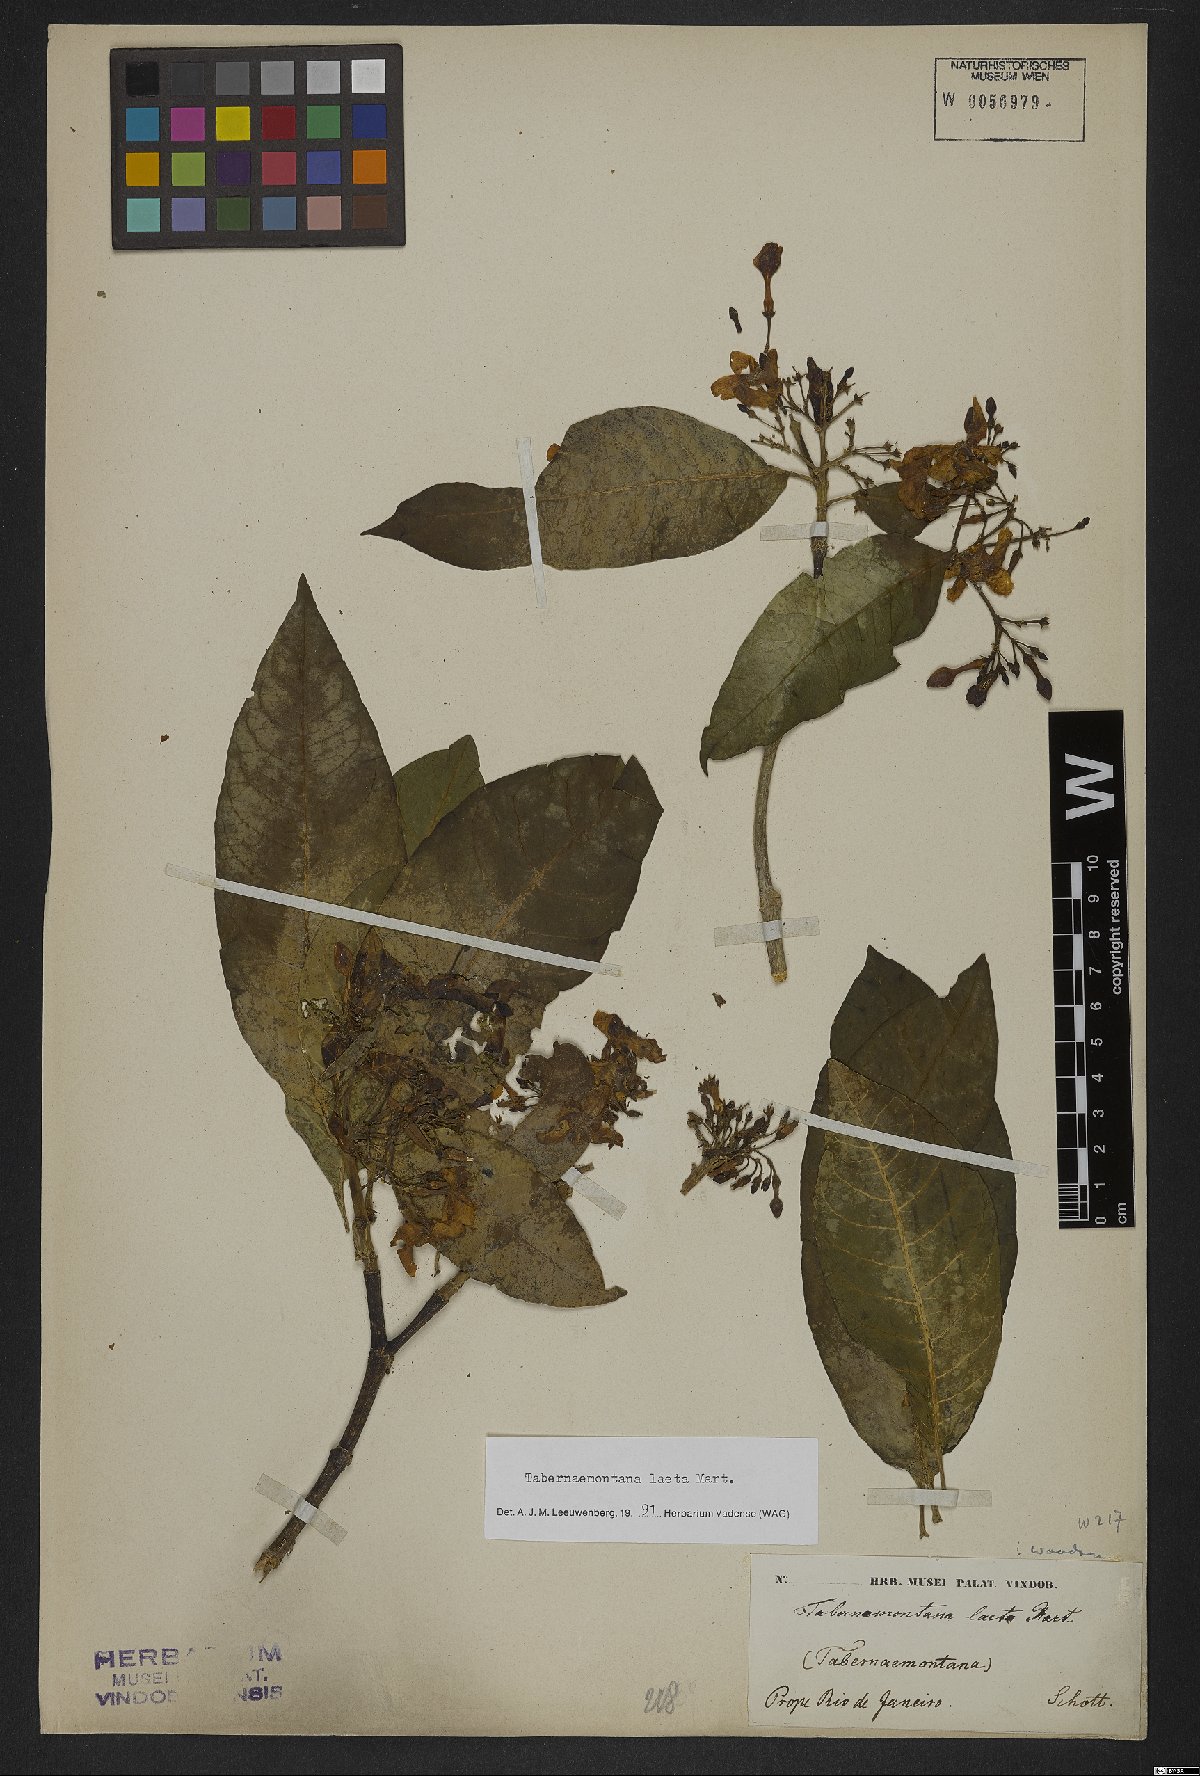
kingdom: Plantae
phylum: Tracheophyta
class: Magnoliopsida
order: Gentianales
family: Apocynaceae
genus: Tabernaemontana
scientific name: Tabernaemontana laeta
